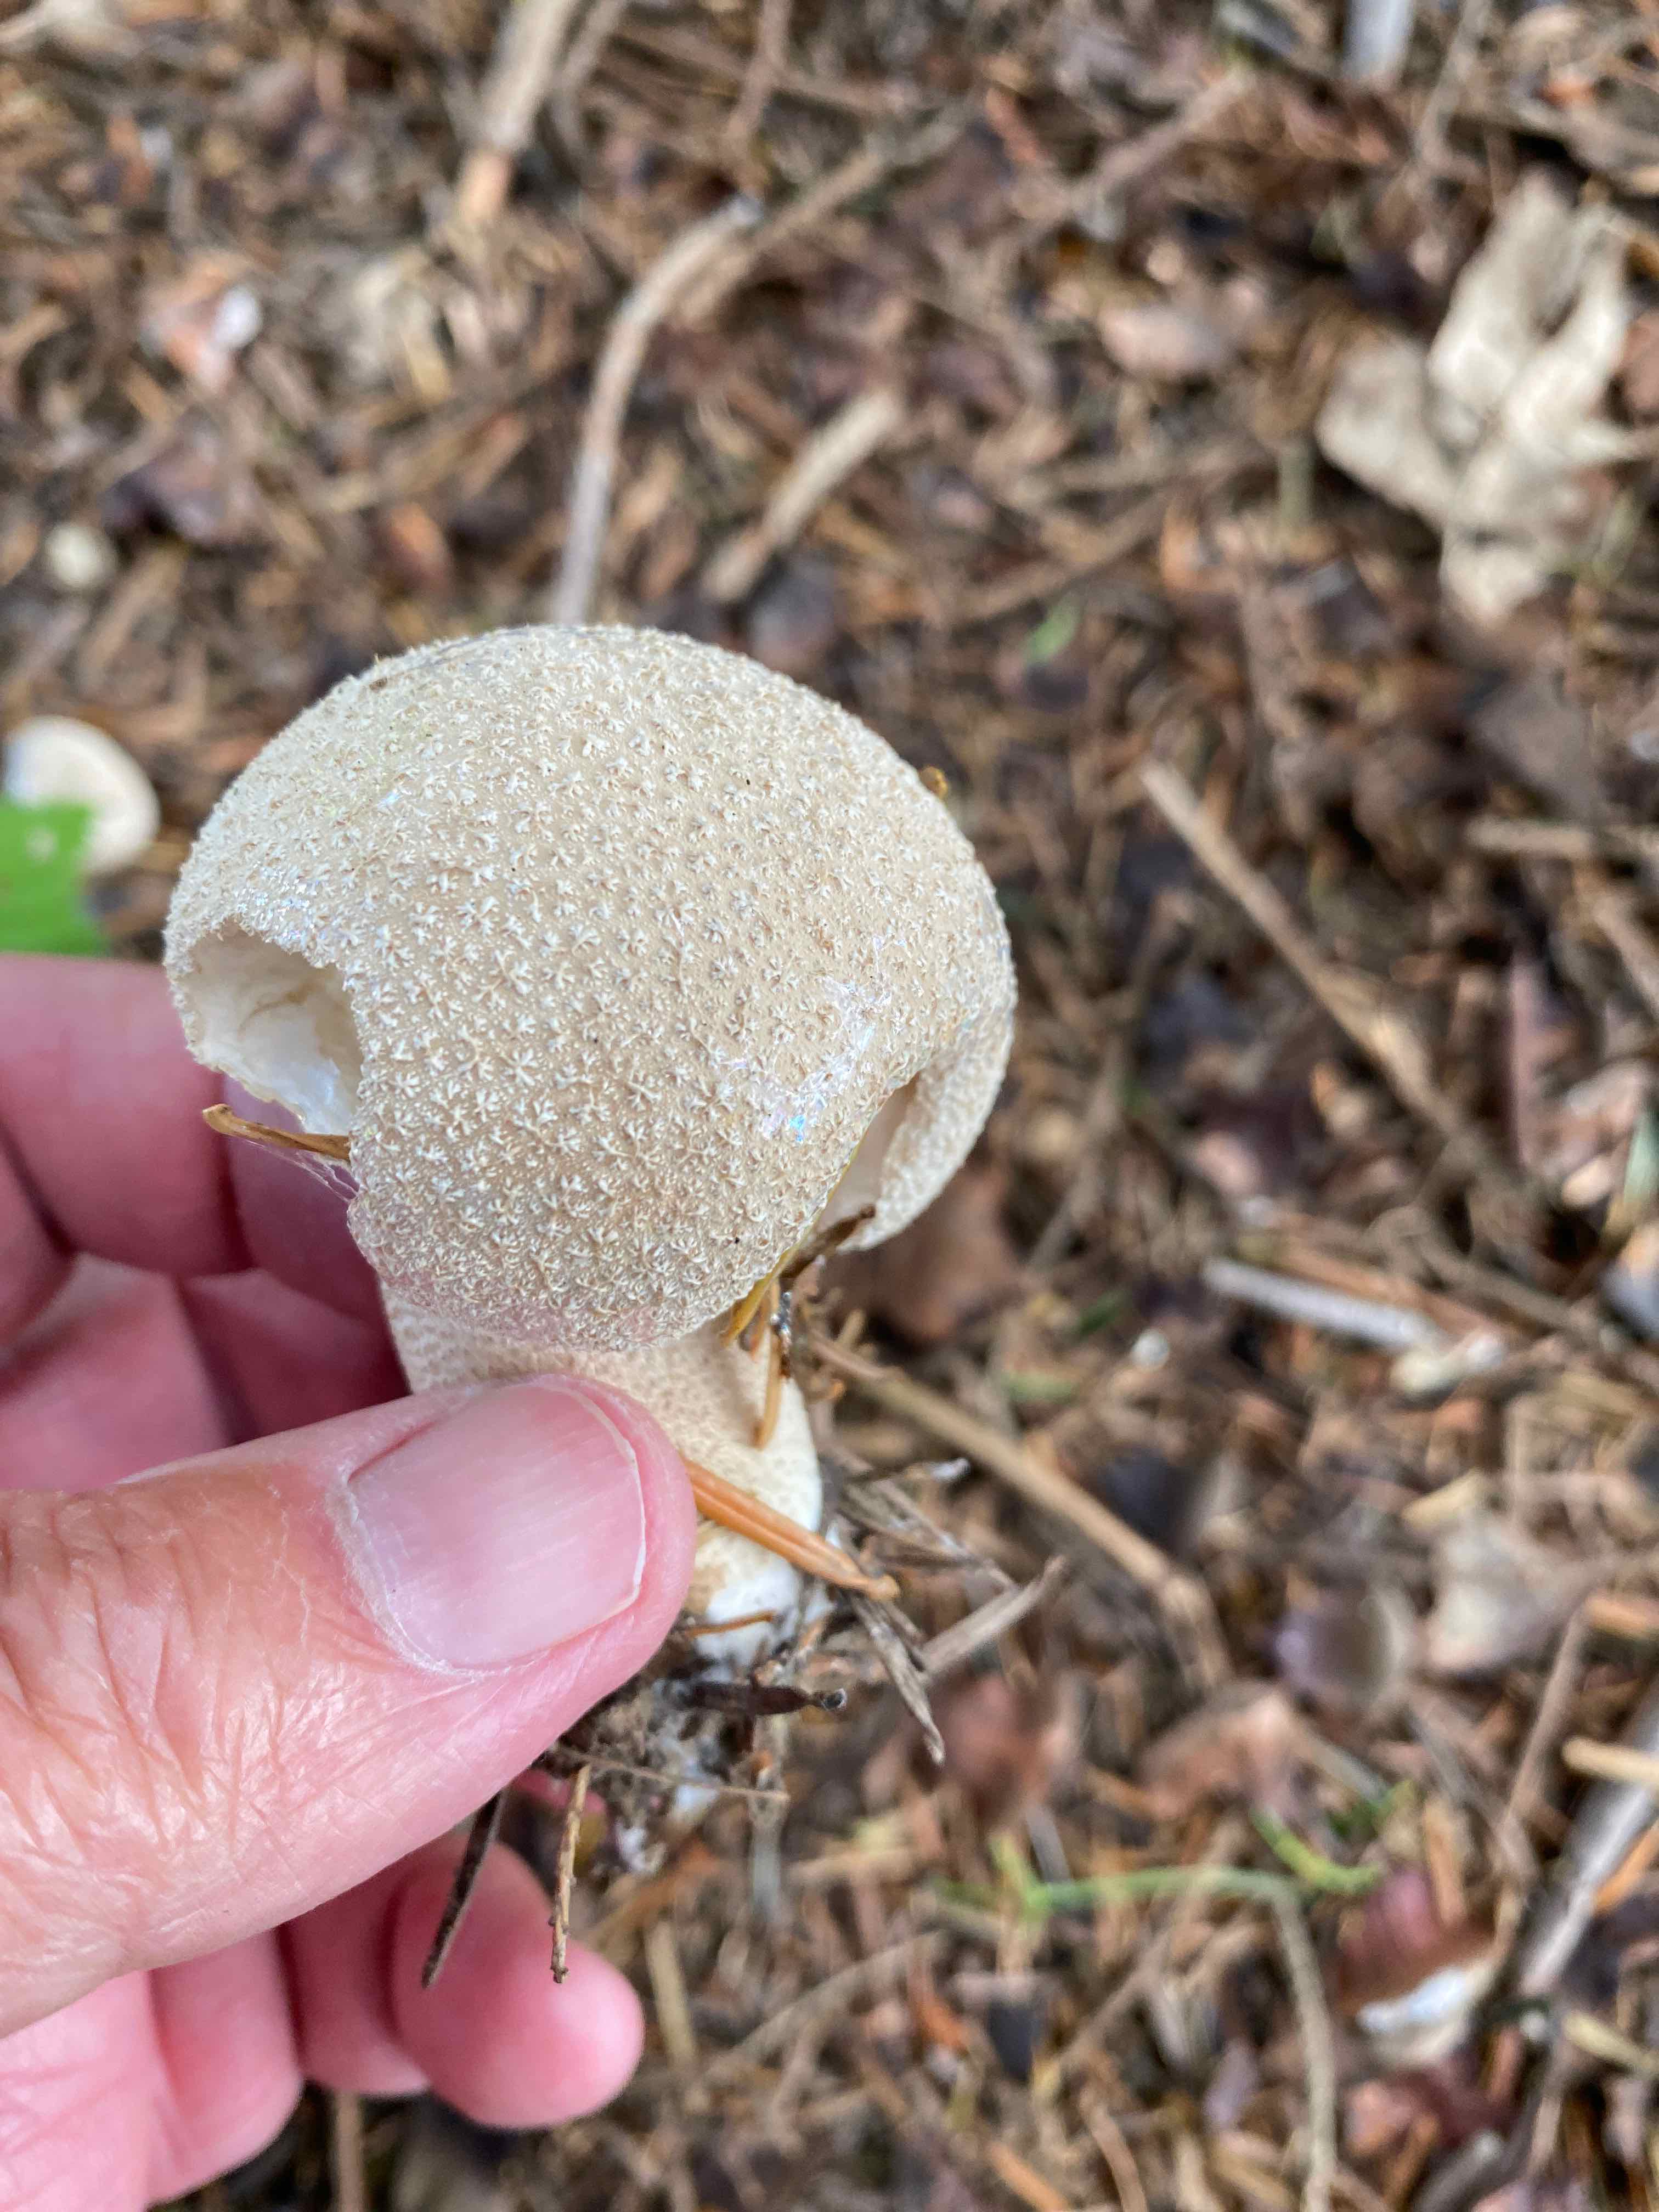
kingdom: Fungi
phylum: Basidiomycota
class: Agaricomycetes
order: Agaricales
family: Lycoperdaceae
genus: Lycoperdon
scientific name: Lycoperdon excipuliforme
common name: højstokket støvbold
